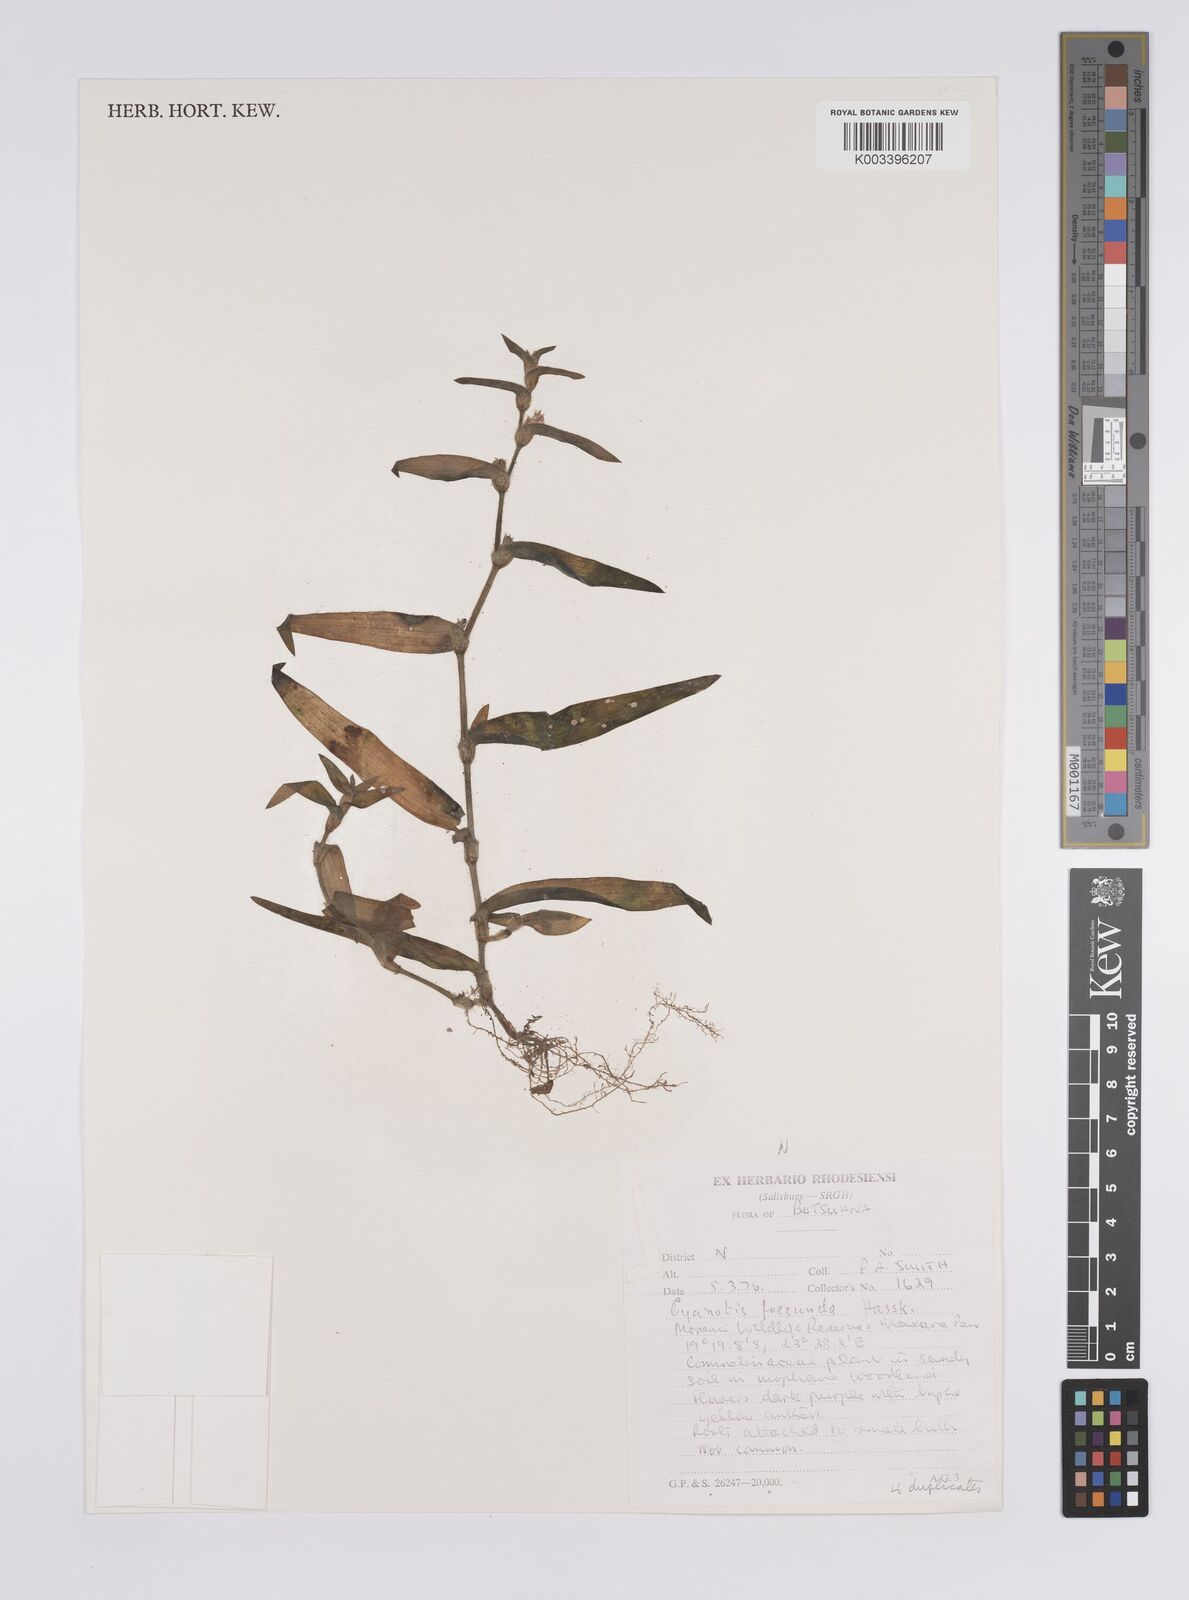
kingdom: Plantae
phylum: Tracheophyta
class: Liliopsida
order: Commelinales
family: Commelinaceae
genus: Cyanotis
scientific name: Cyanotis foecunda
